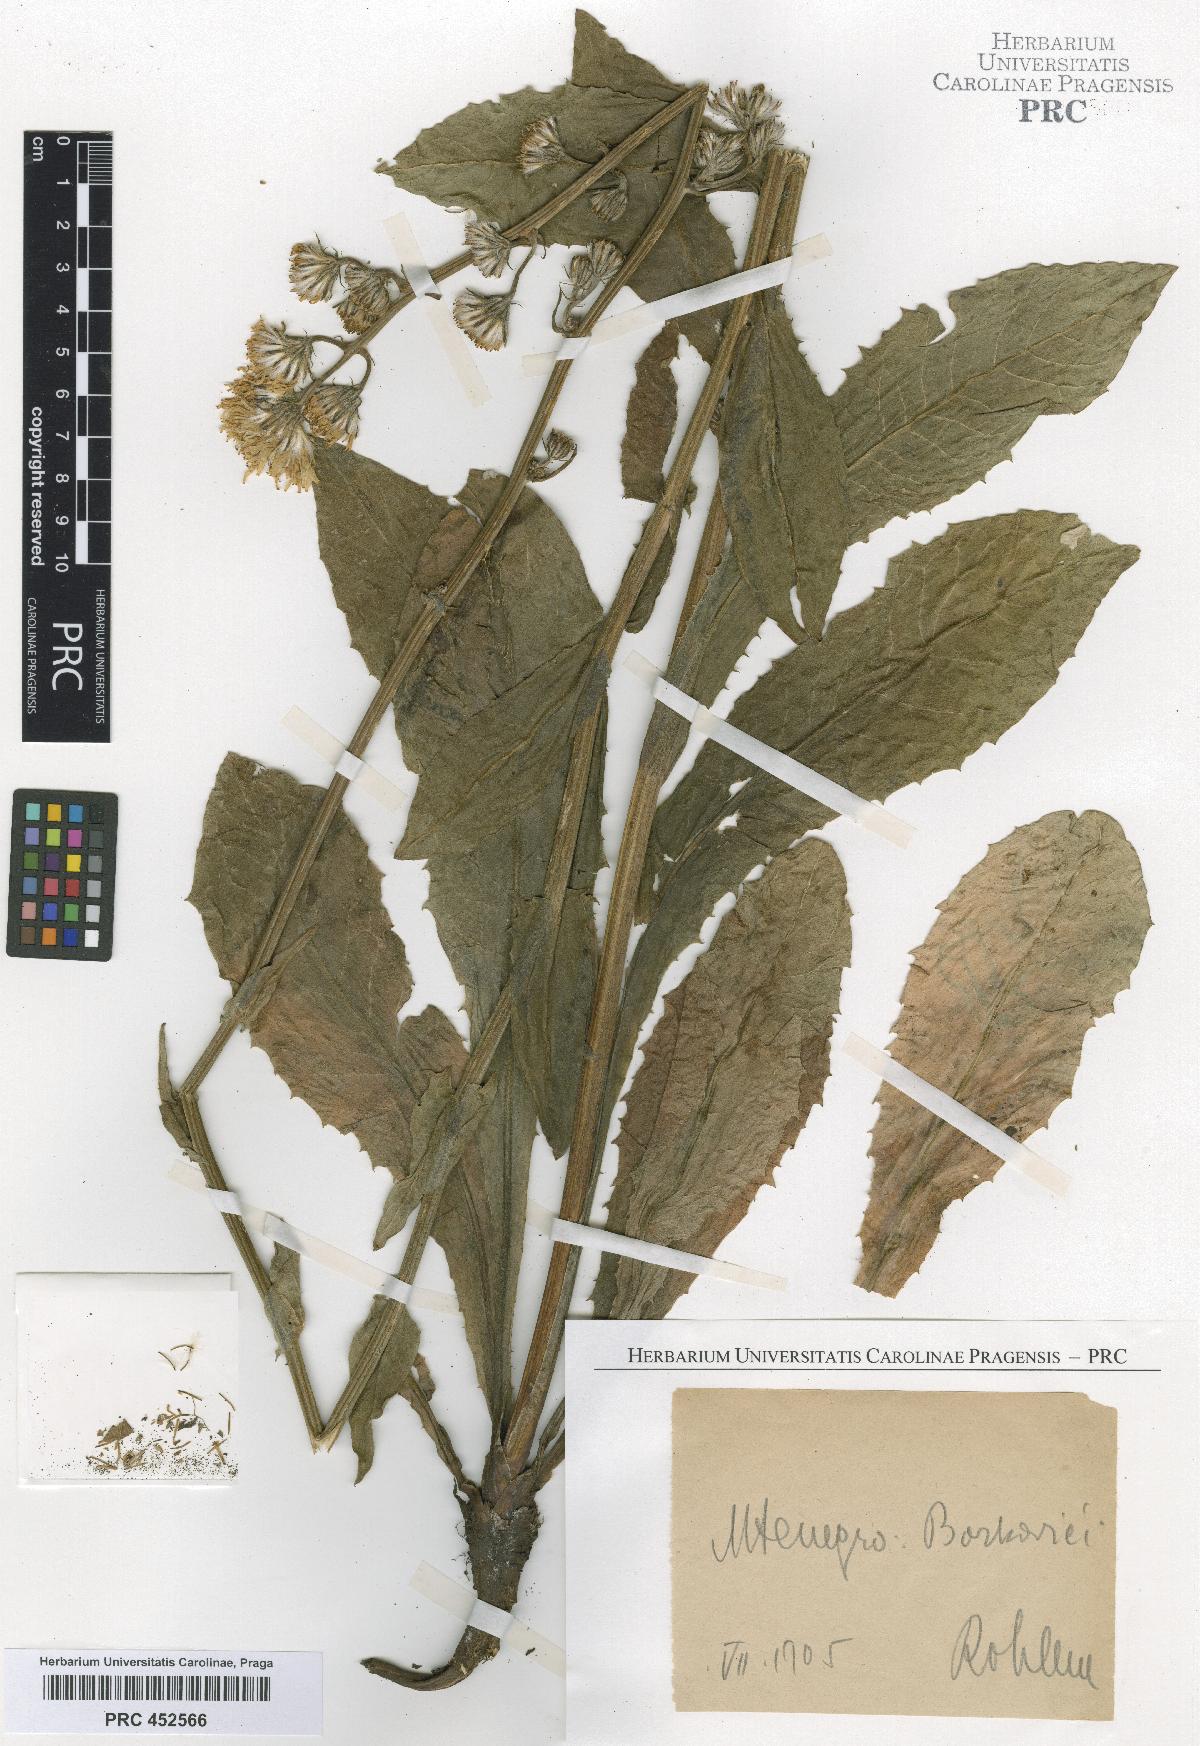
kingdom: Plantae
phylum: Tracheophyta
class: Magnoliopsida
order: Asterales
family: Asteraceae
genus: Crepis
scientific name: Crepis pannonica
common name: Pasture hawksbeard
